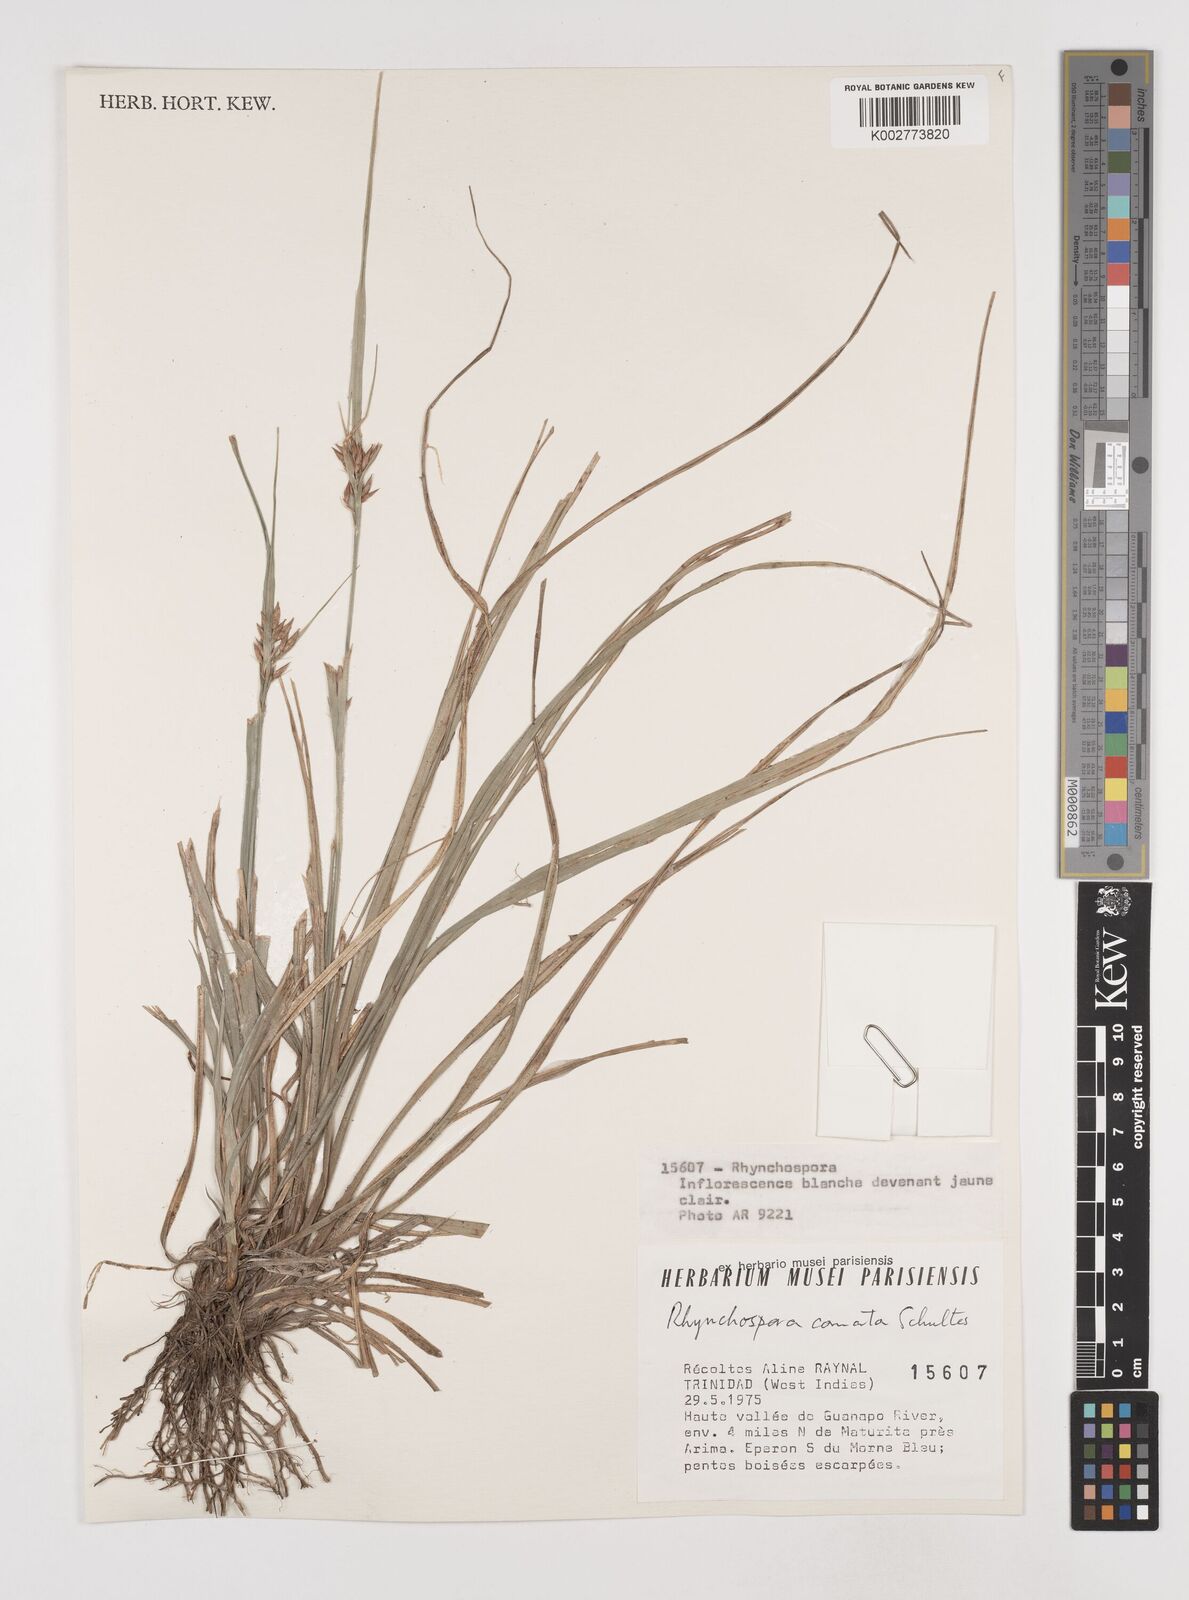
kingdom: Plantae
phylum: Tracheophyta
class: Liliopsida
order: Poales
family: Cyperaceae
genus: Rhynchospora
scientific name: Rhynchospora comata
